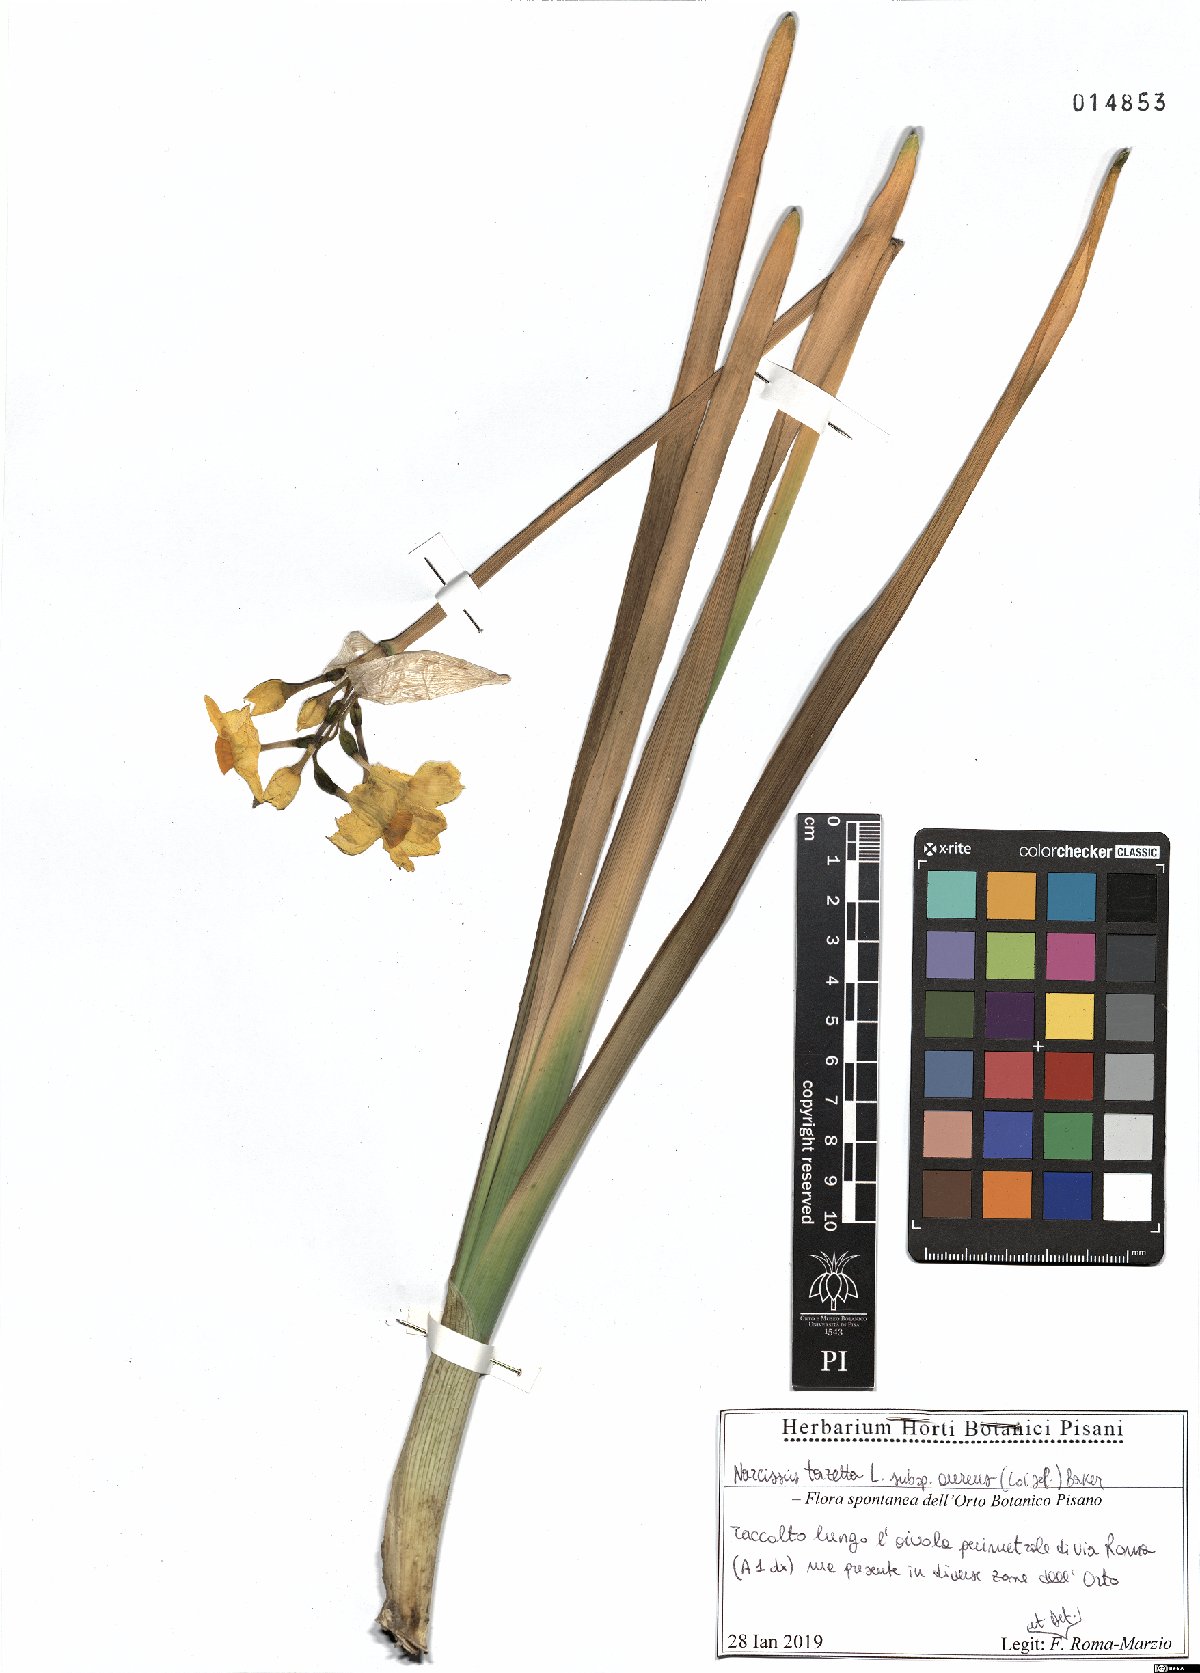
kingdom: Plantae
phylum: Tracheophyta
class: Liliopsida
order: Asparagales
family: Amaryllidaceae
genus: Narcissus
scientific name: Narcissus tazetta
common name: Bunch-flowered daffodil
